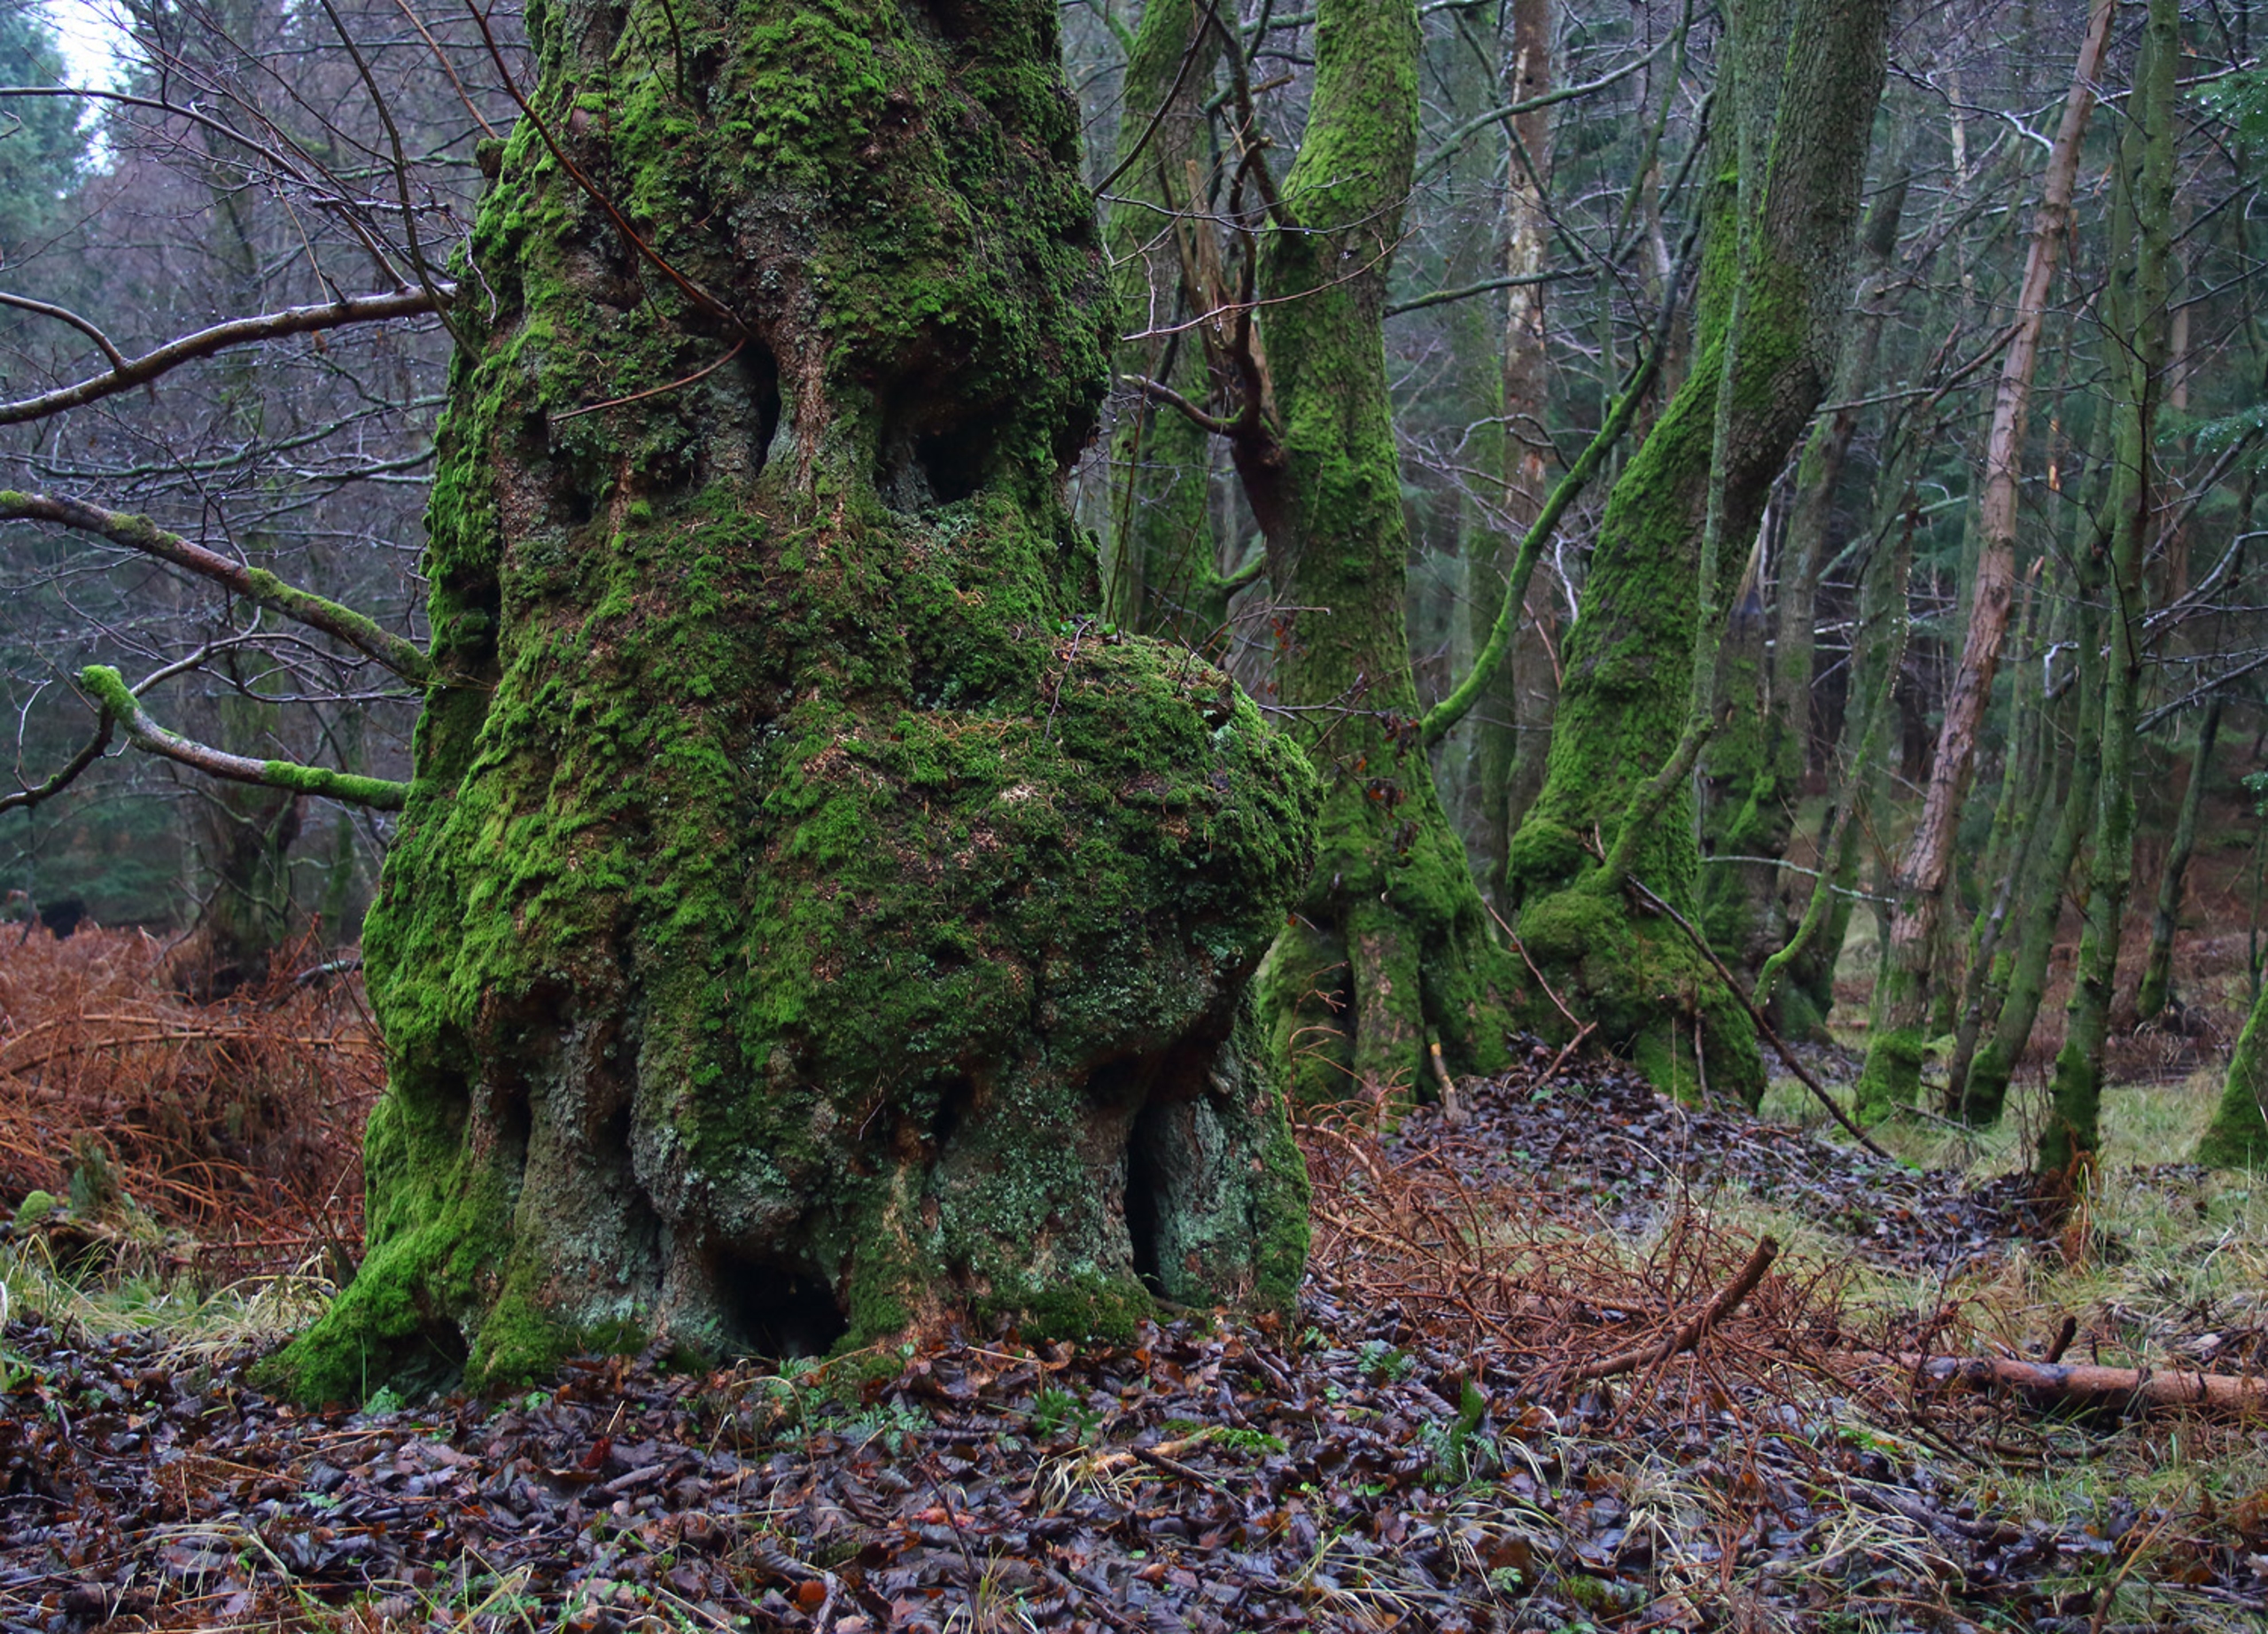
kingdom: Plantae
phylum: Tracheophyta
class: Magnoliopsida
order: Fagales
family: Betulaceae
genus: Alnus
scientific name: Alnus glutinosa
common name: Rød-el
